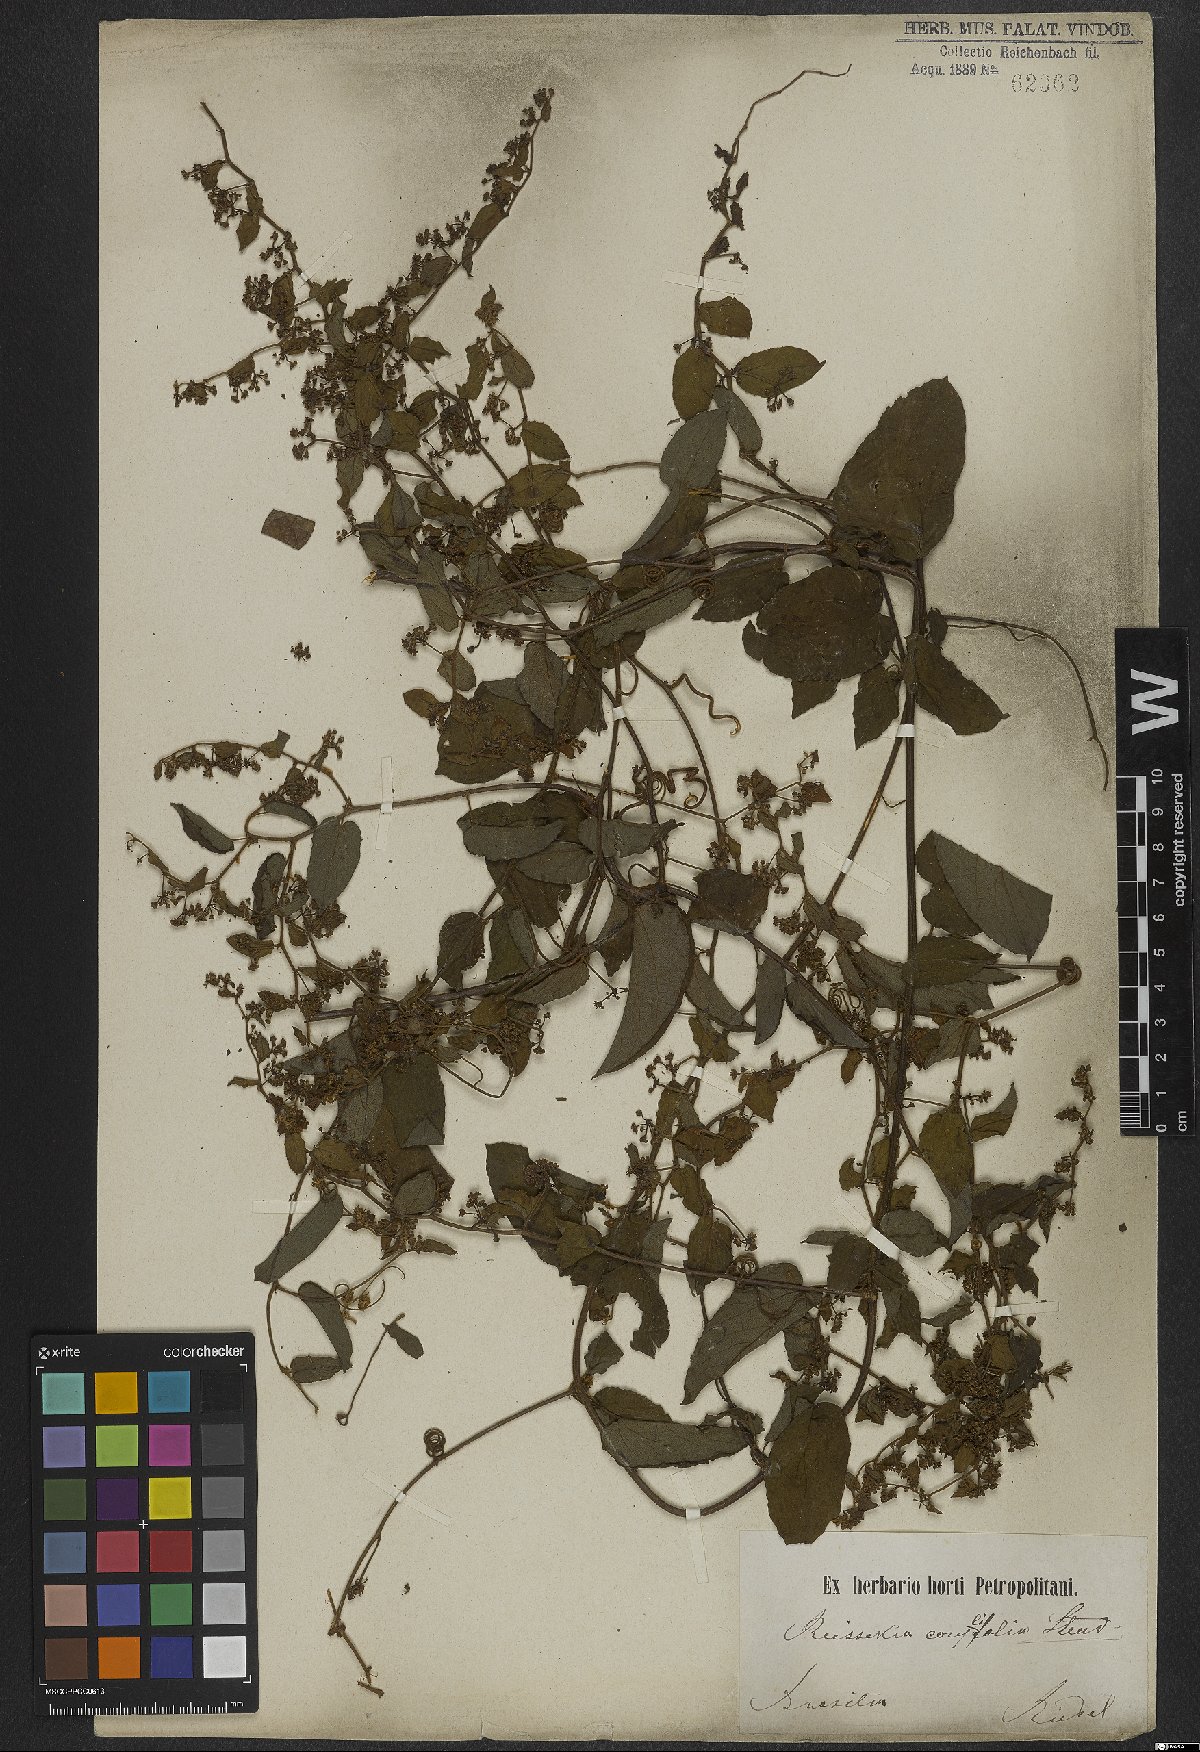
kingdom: Plantae
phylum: Tracheophyta
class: Magnoliopsida
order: Rosales
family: Rhamnaceae
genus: Reissekia
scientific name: Reissekia smilacina
